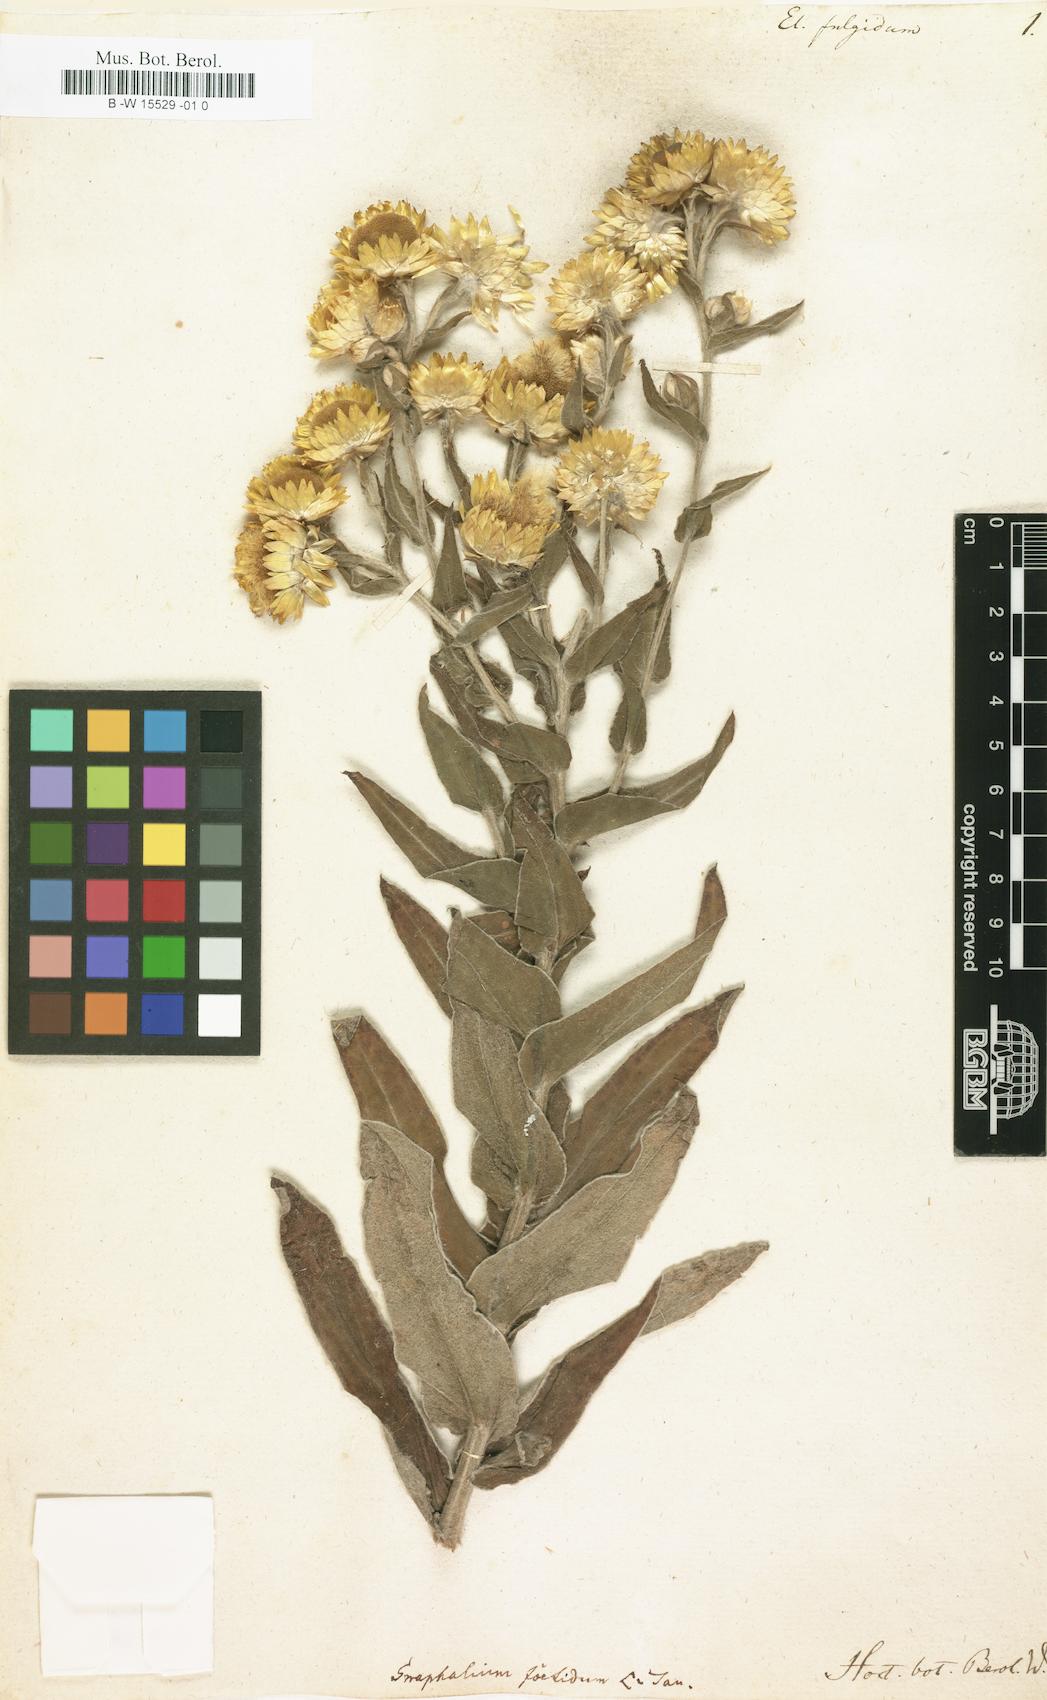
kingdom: Plantae
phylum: Tracheophyta
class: Magnoliopsida
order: Asterales
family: Asteraceae
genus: Helichrysum
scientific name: Helichrysum
